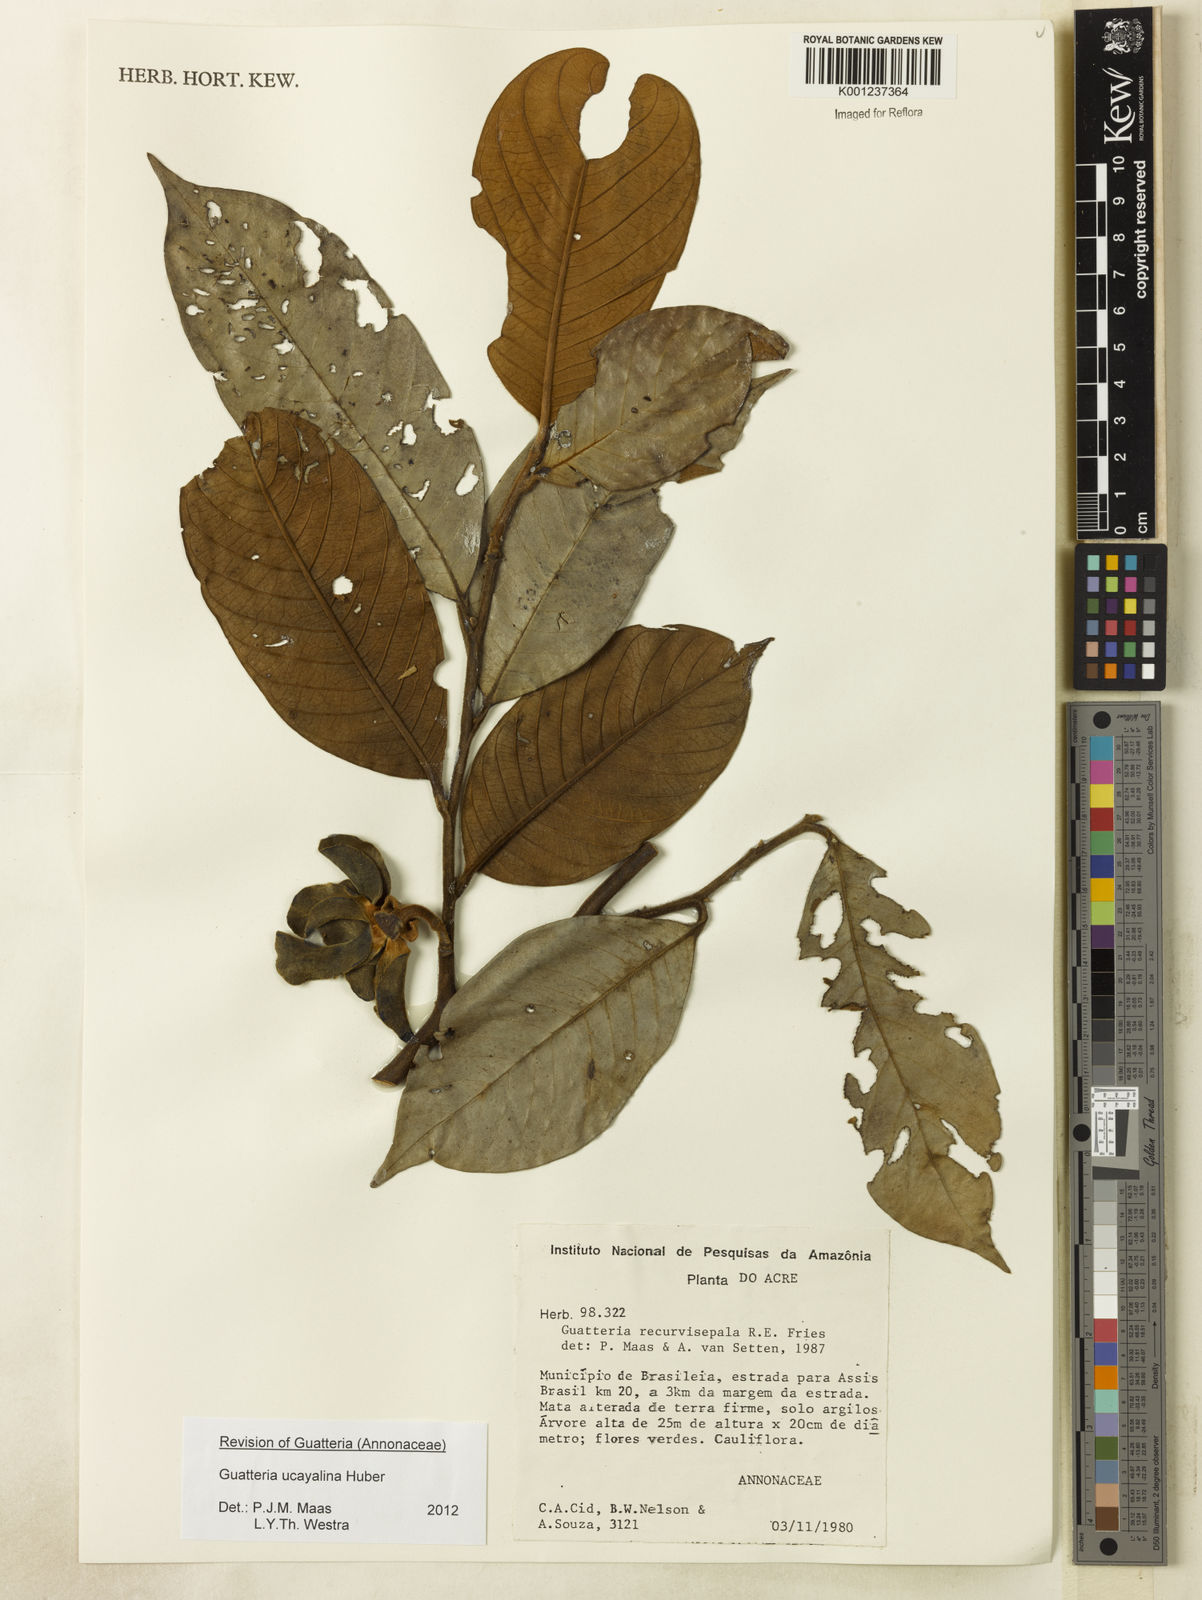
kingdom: Plantae
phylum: Tracheophyta
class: Magnoliopsida
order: Magnoliales
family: Annonaceae
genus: Guatteria
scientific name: Guatteria blepharophylla
